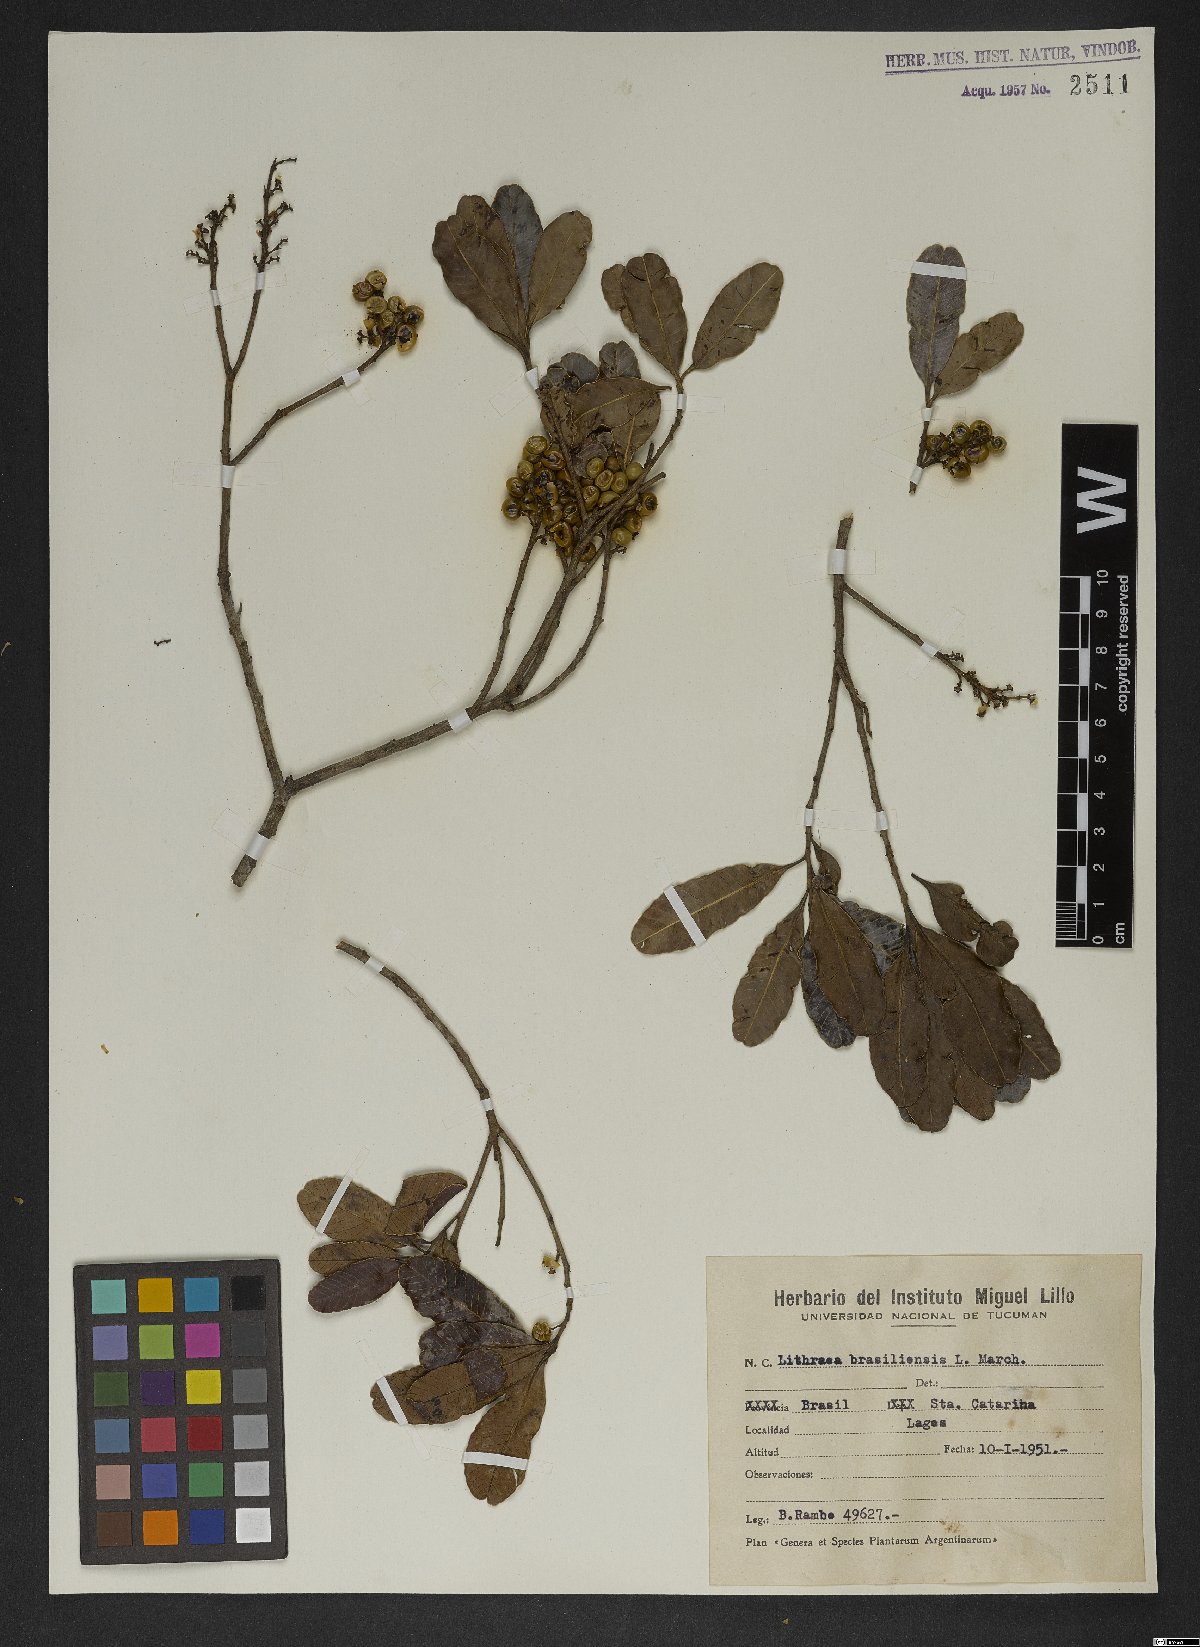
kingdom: Plantae
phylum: Tracheophyta
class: Magnoliopsida
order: Sapindales
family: Anacardiaceae
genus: Lithraea
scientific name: Lithraea brasiliensis
